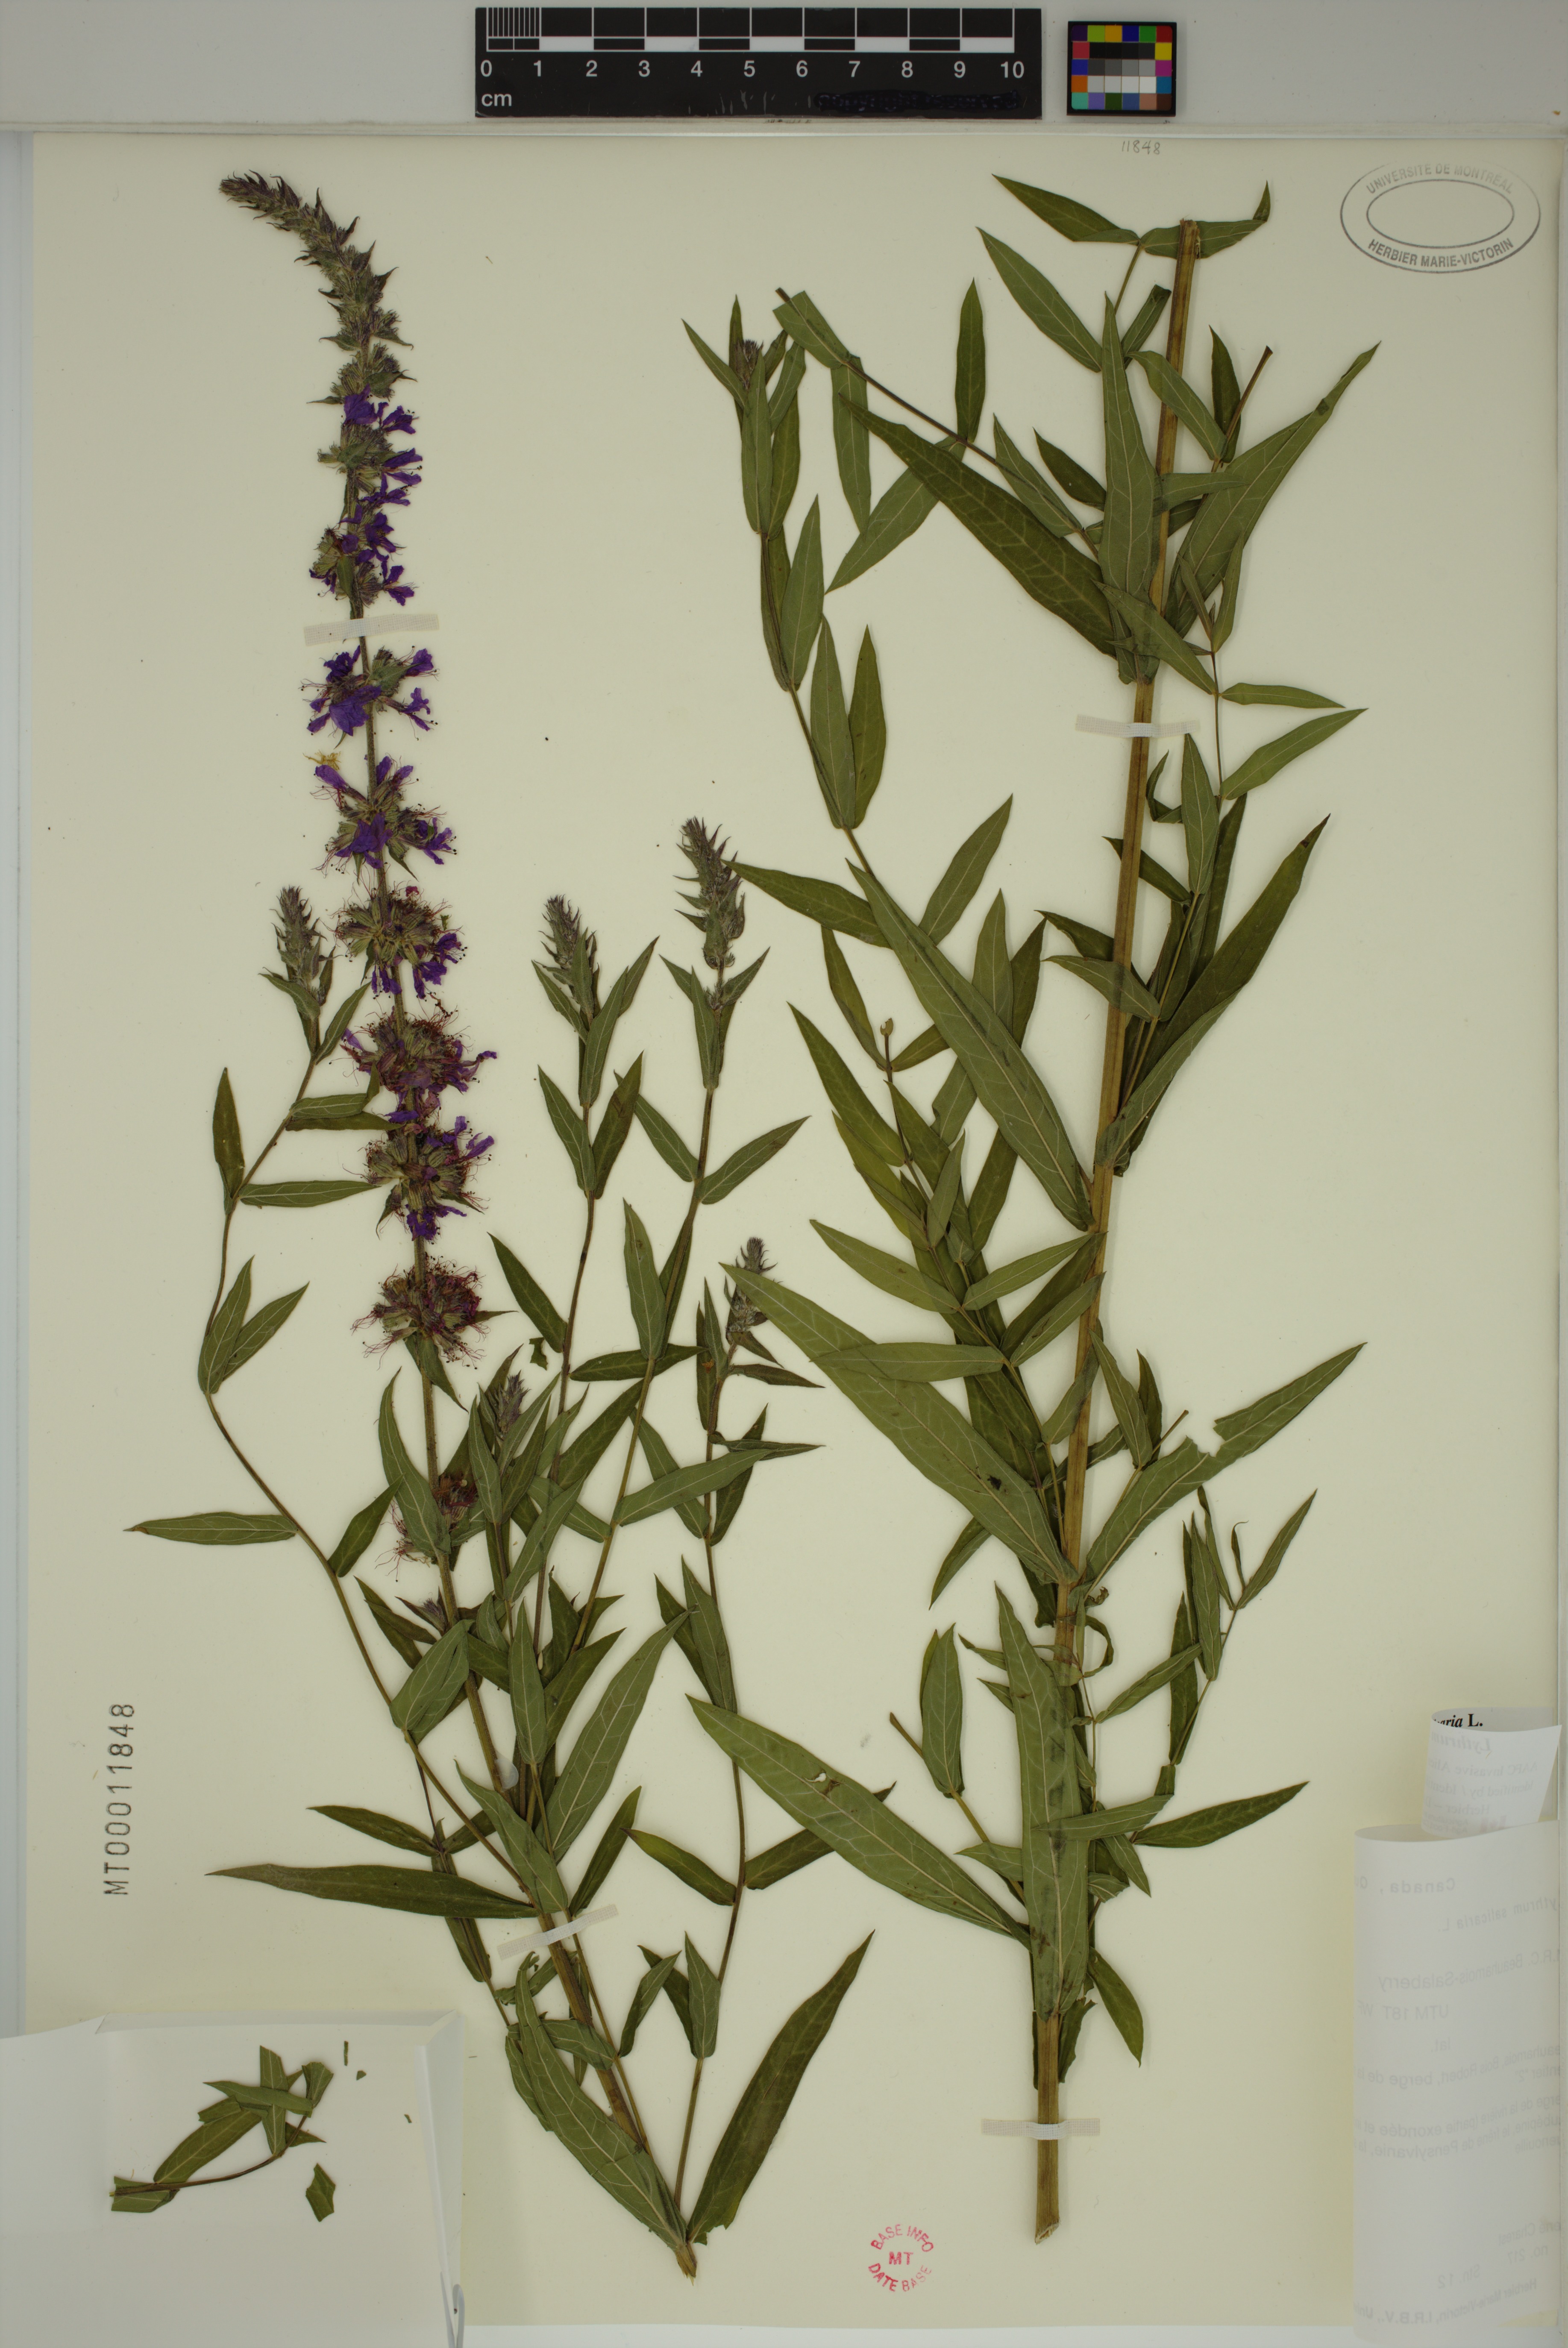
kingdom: Plantae
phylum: Tracheophyta
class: Magnoliopsida
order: Myrtales
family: Lythraceae
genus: Lythrum
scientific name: Lythrum salicaria
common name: Purple loosestrife
